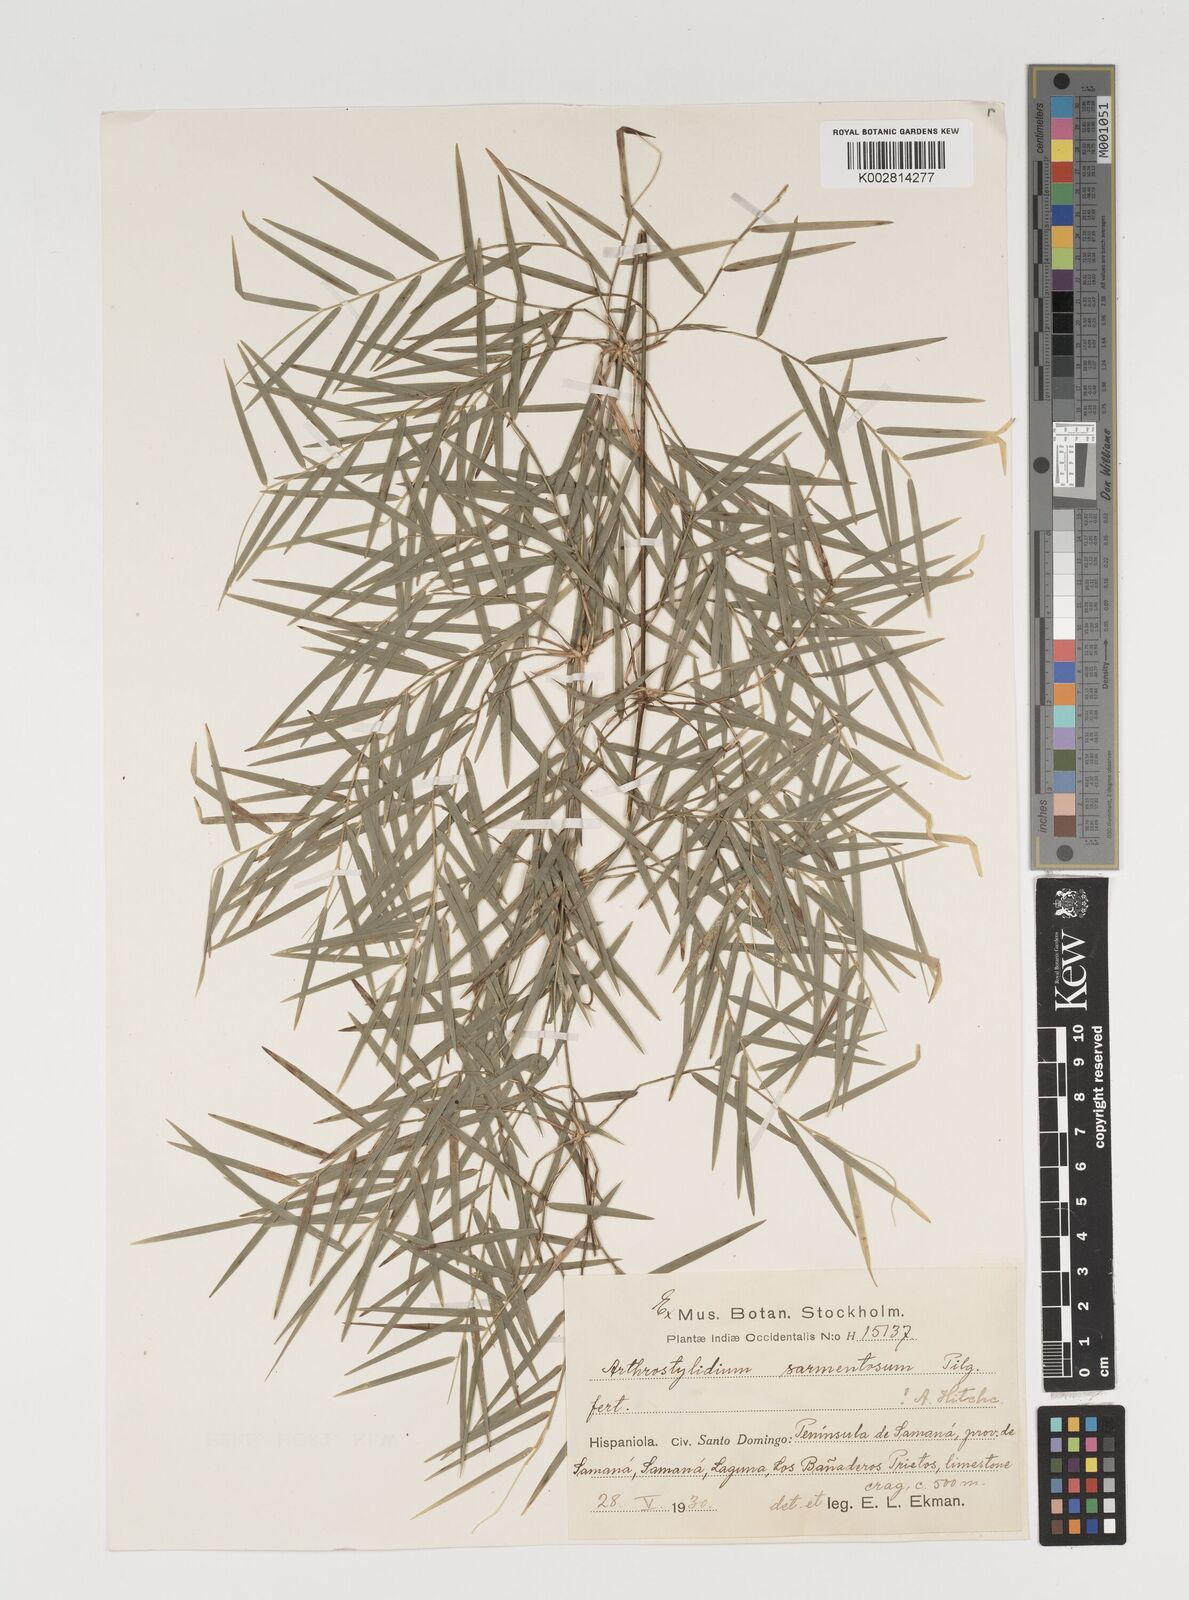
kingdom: Plantae
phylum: Tracheophyta
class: Liliopsida
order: Poales
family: Poaceae
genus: Arthrostylidium
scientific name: Arthrostylidium sarmentosum
